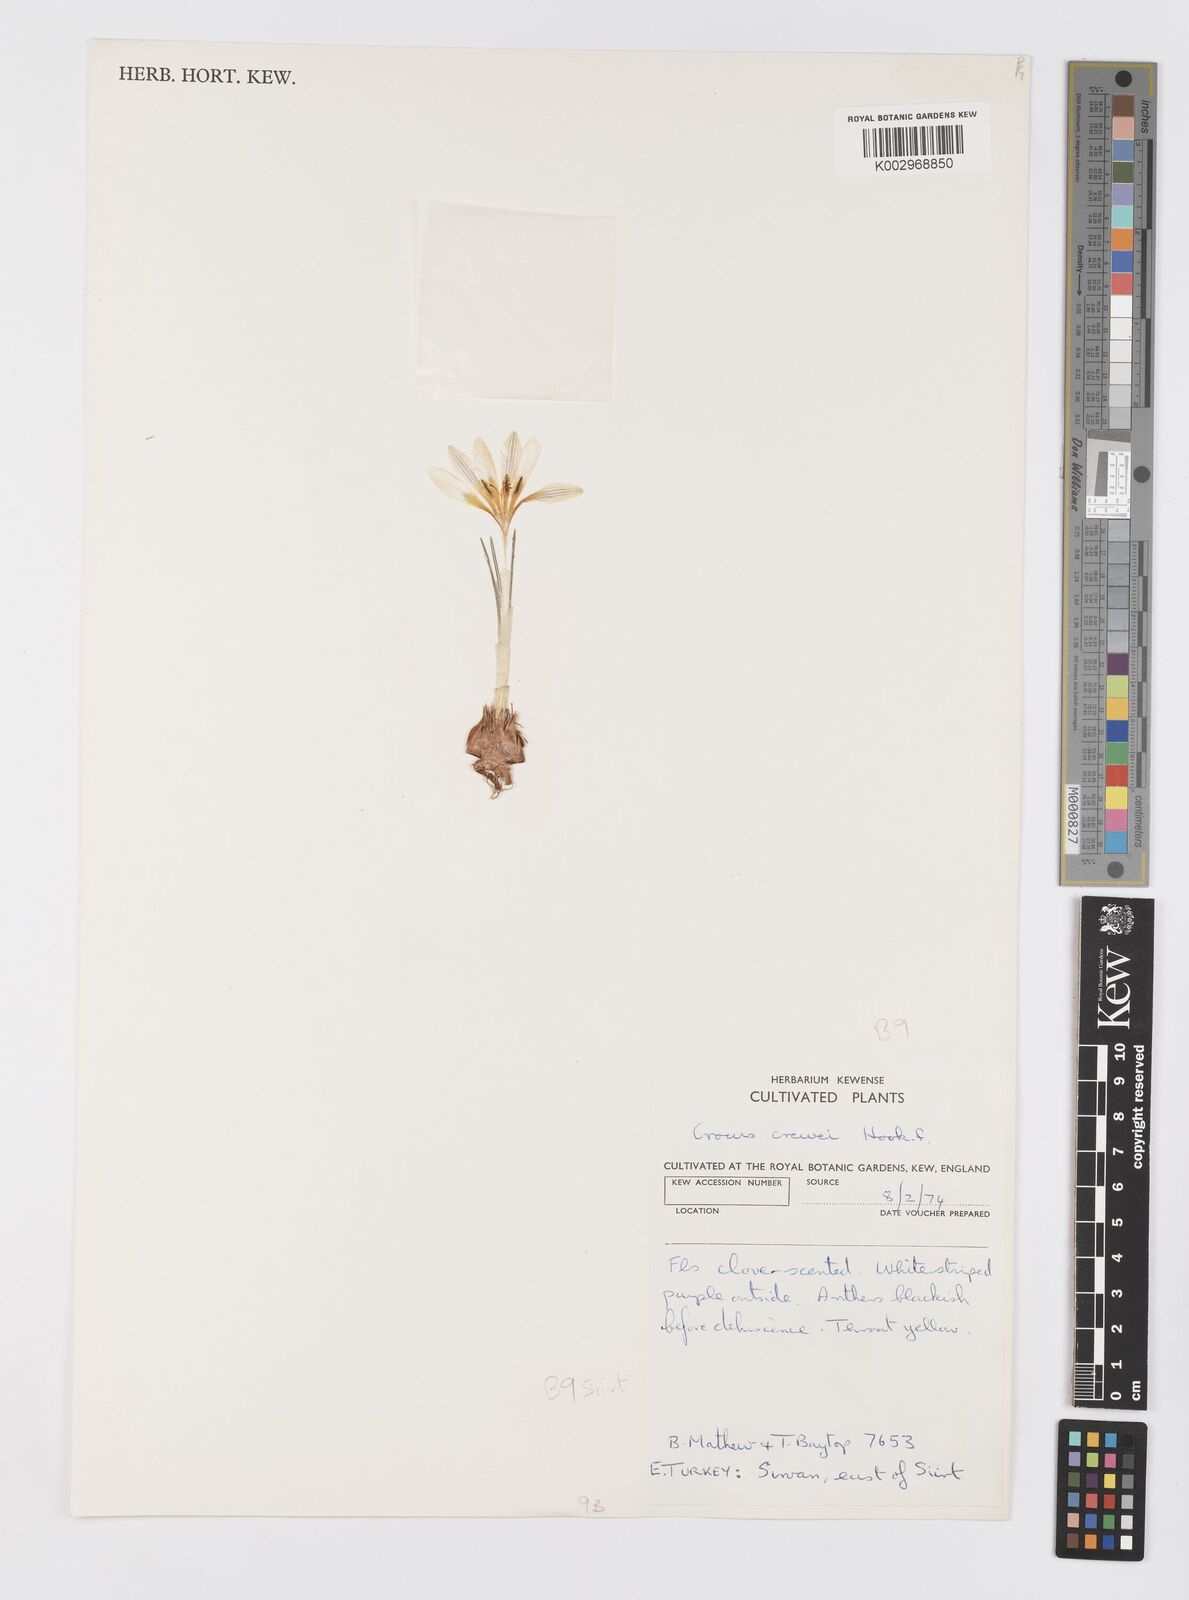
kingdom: Plantae
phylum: Tracheophyta
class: Liliopsida
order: Asparagales
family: Iridaceae
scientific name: Iridaceae
